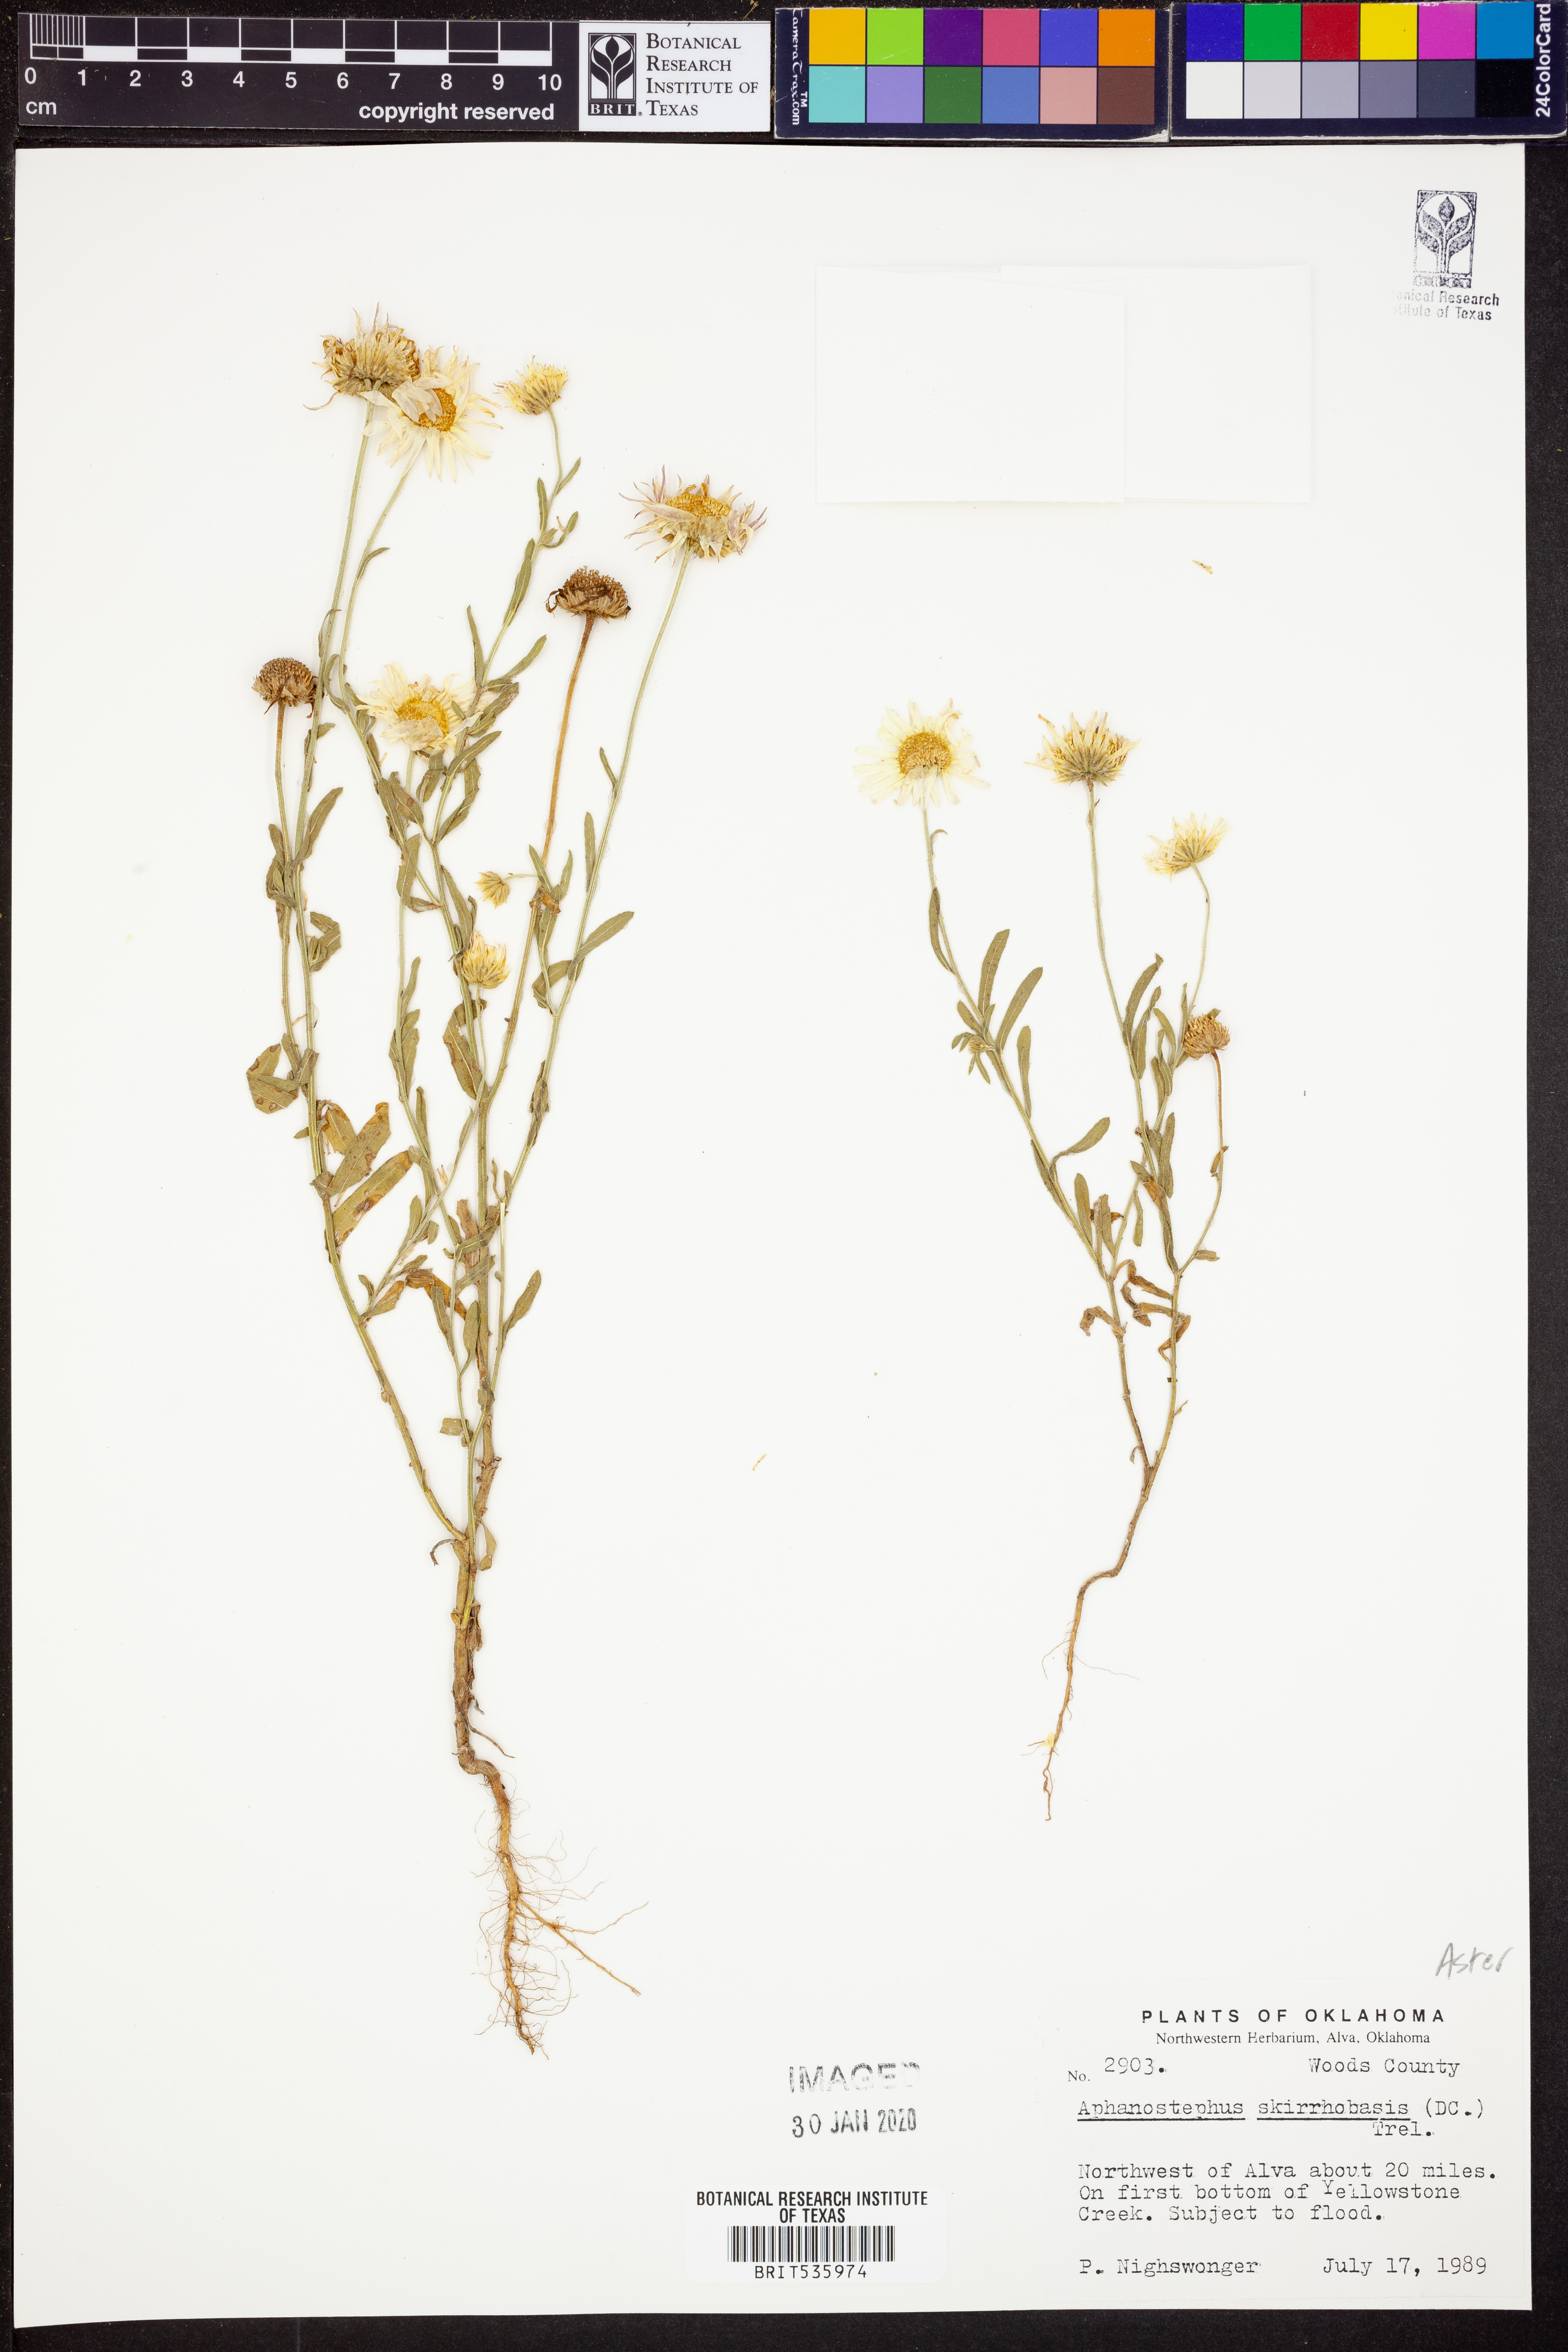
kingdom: Plantae
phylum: Tracheophyta
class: Magnoliopsida
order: Asterales
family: Asteraceae
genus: Aphanostephus
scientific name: Aphanostephus skirrhobasis
